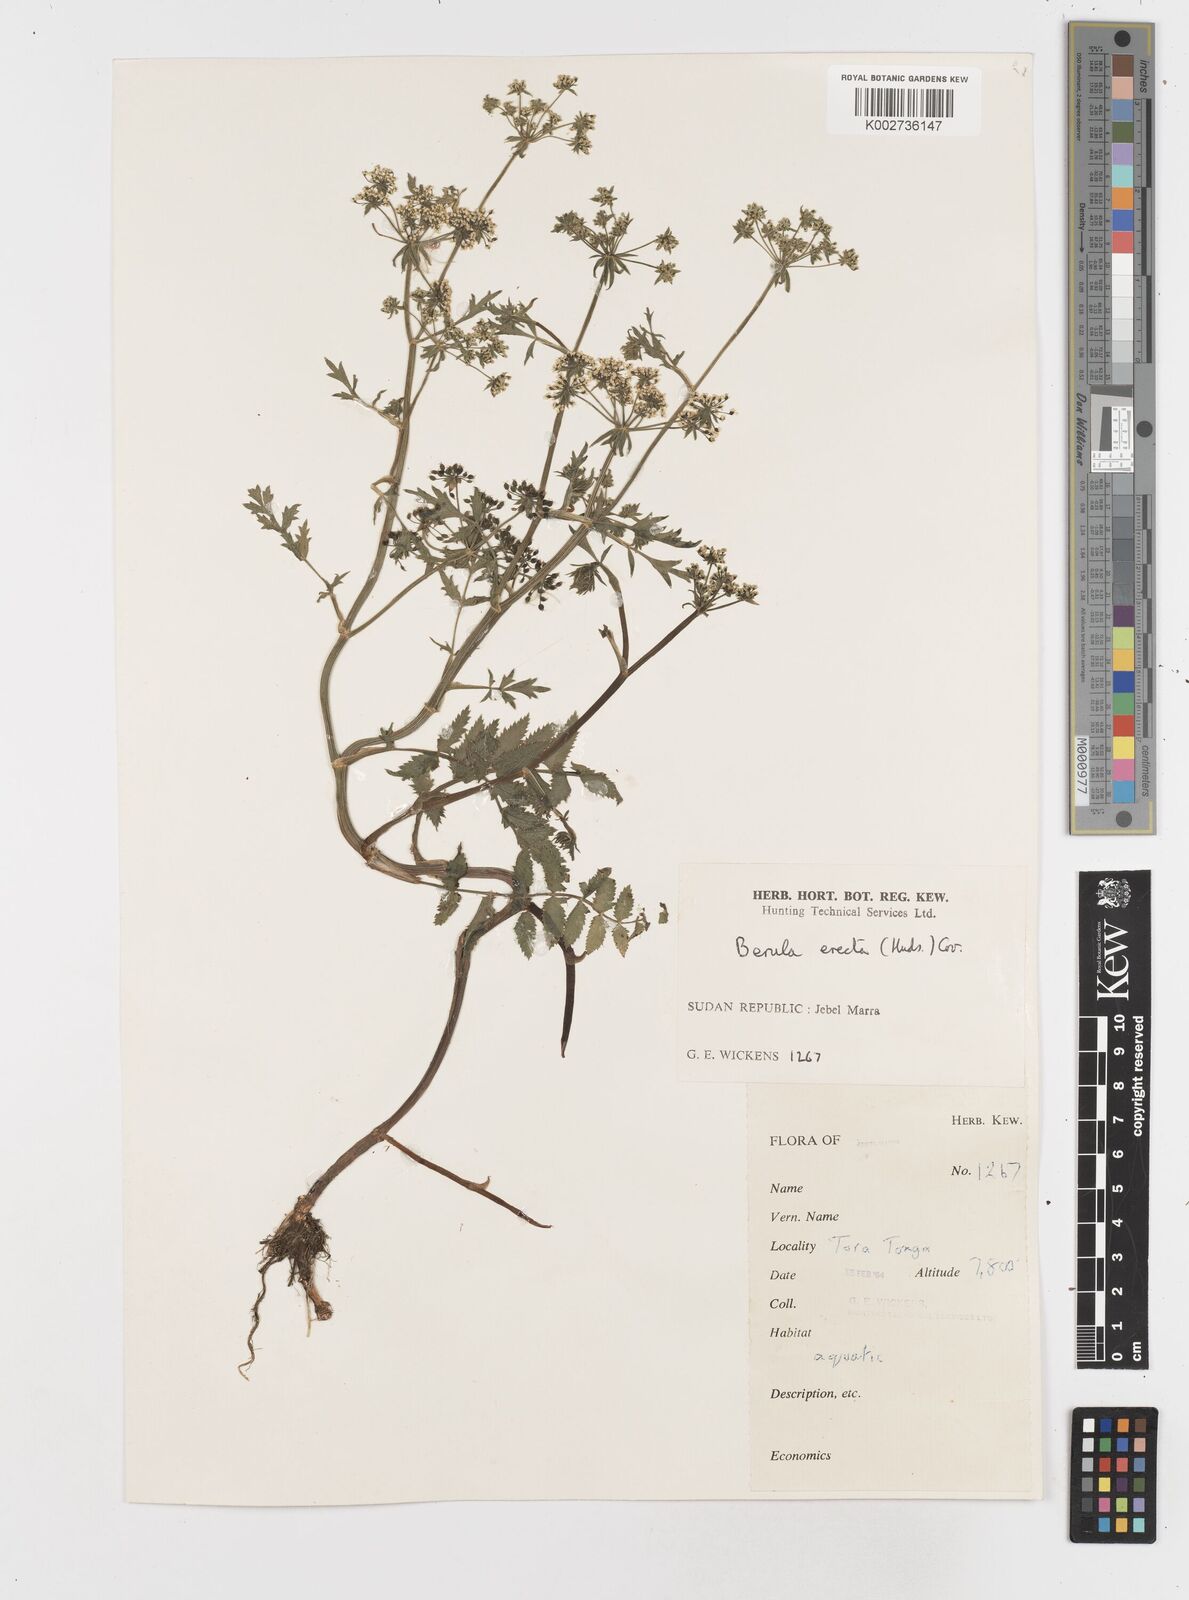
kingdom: Plantae
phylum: Tracheophyta
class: Magnoliopsida
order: Apiales
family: Apiaceae
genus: Berula
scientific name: Berula erecta
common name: Lesser water-parsnip
